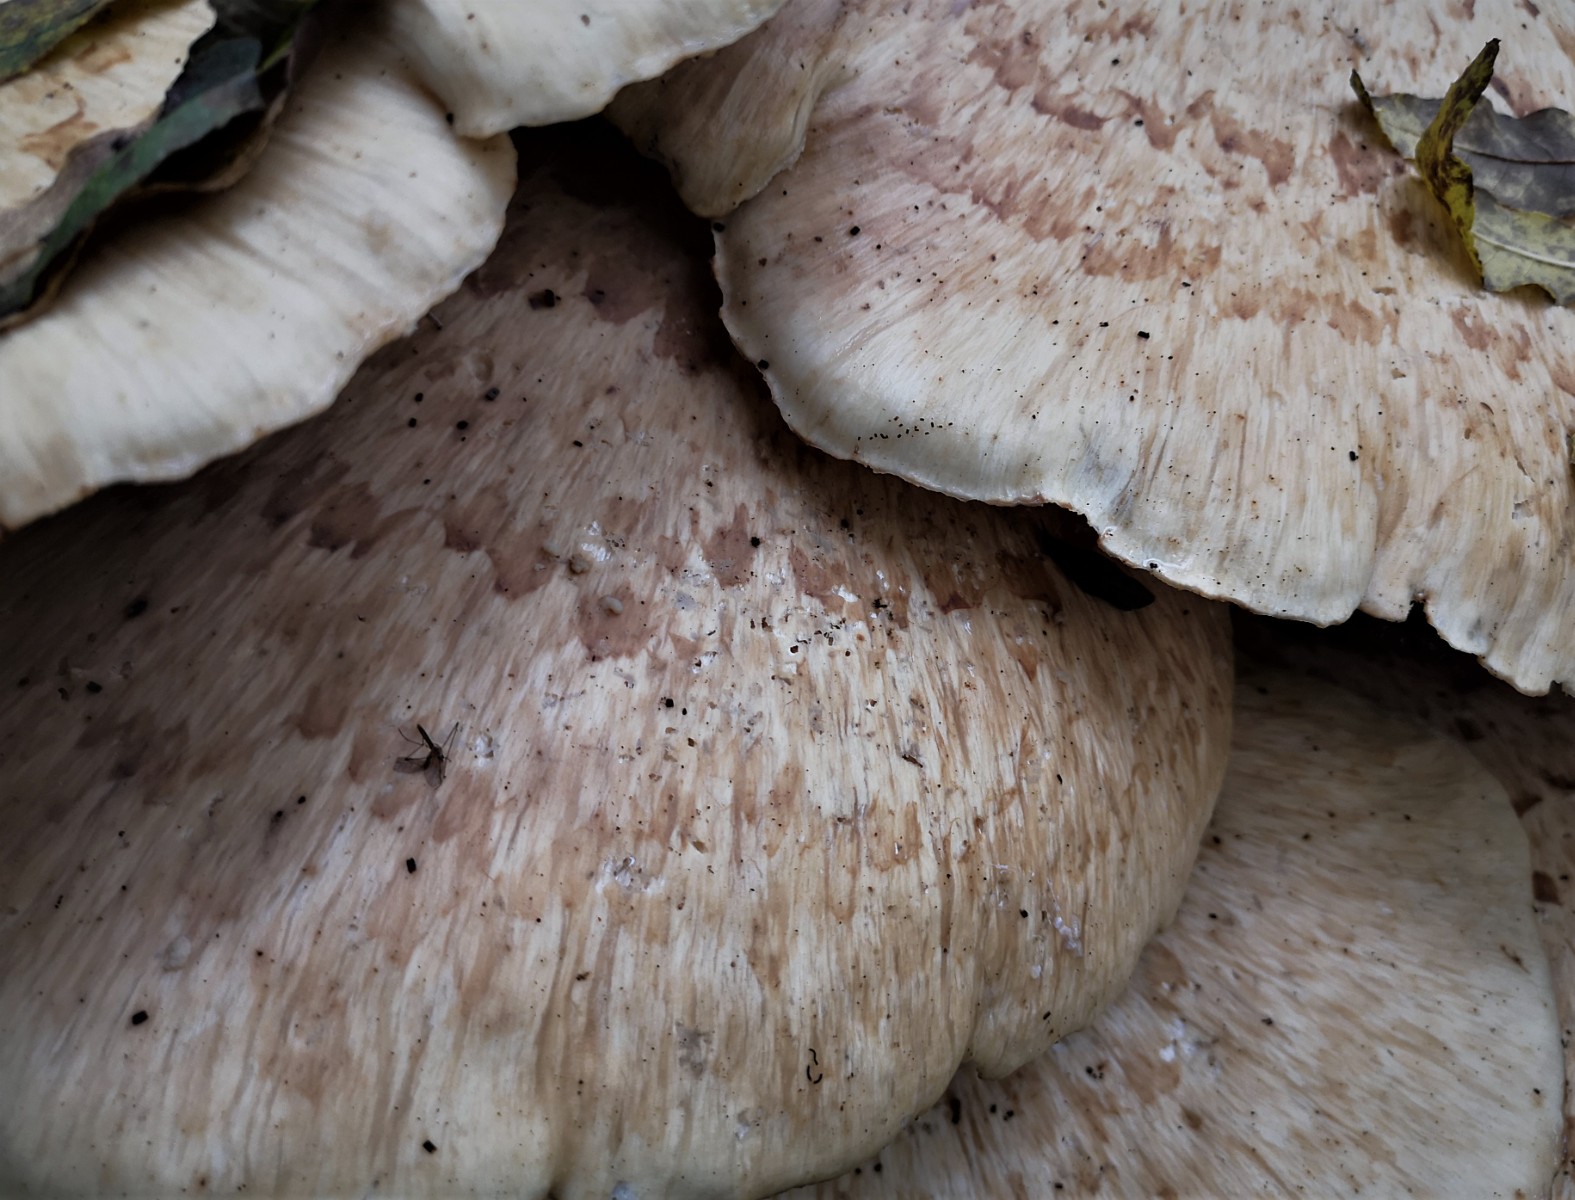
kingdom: Fungi
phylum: Basidiomycota
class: Agaricomycetes
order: Polyporales
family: Polyporaceae
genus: Cerioporus
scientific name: Cerioporus squamosus
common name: skællet stilkporesvamp
